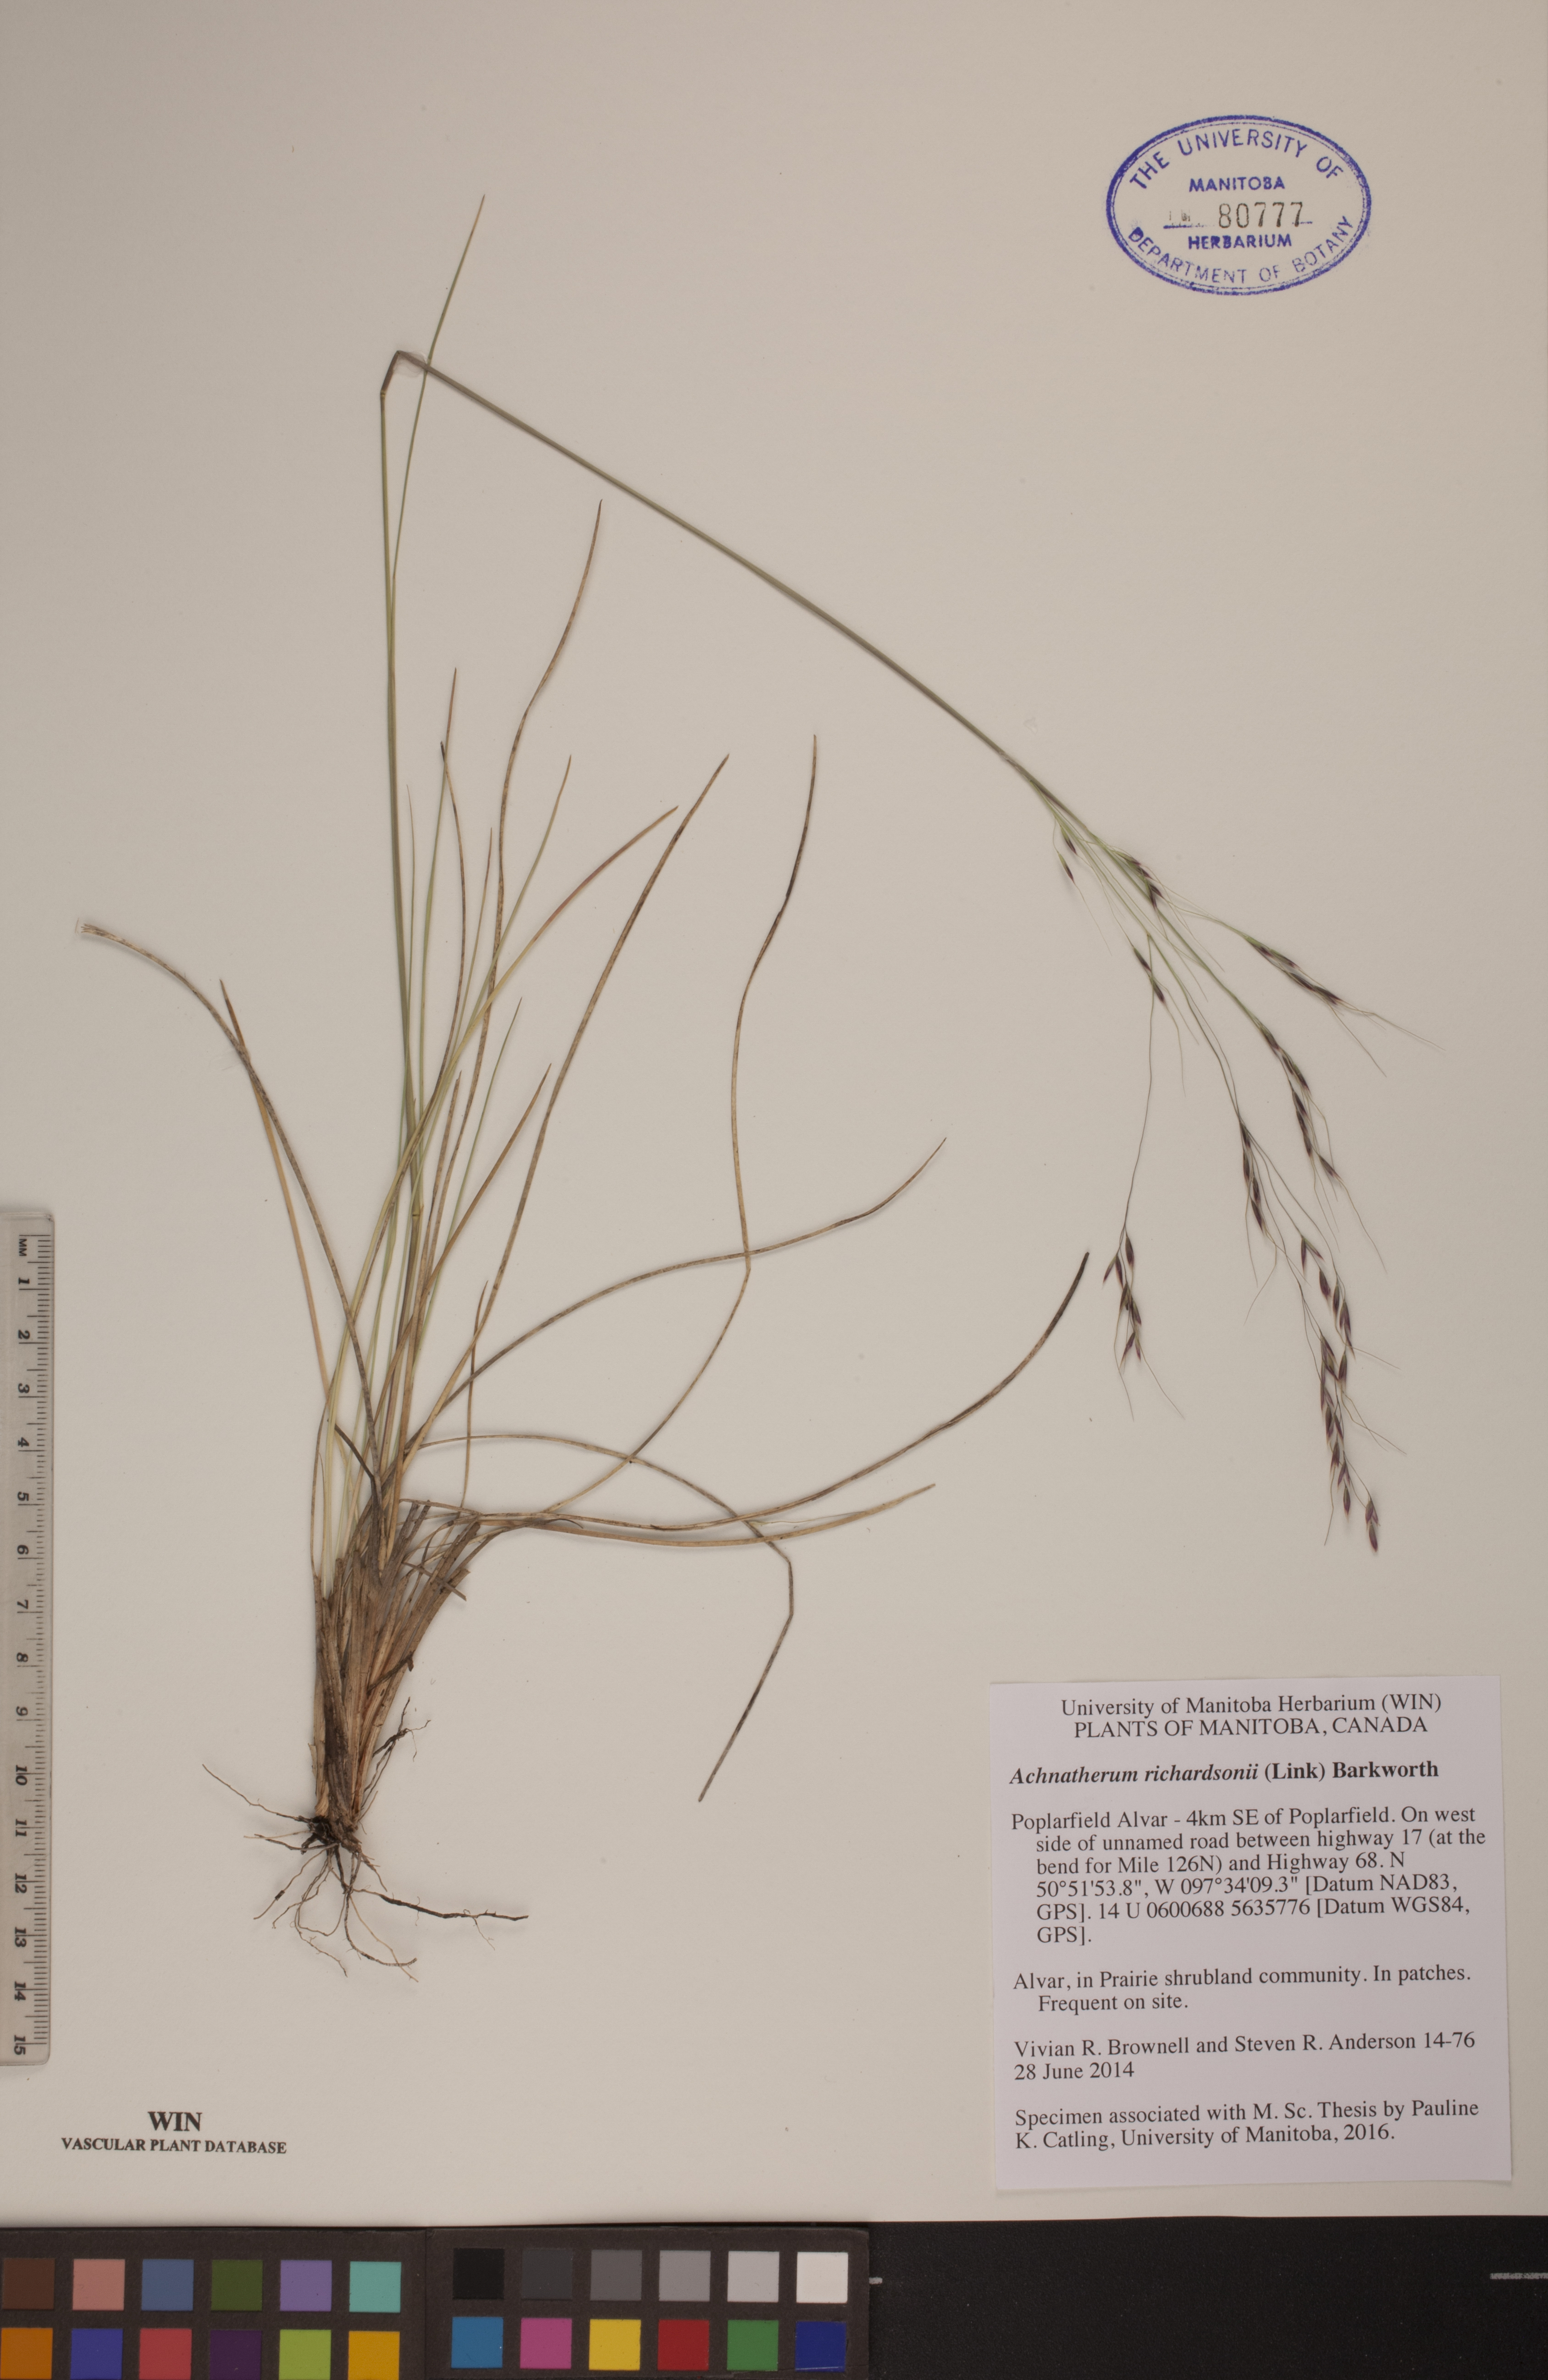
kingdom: Plantae
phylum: Tracheophyta
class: Liliopsida
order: Poales
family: Poaceae
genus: Eriocoma
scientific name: Eriocoma richardsonii
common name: Richardson's needlegrass
